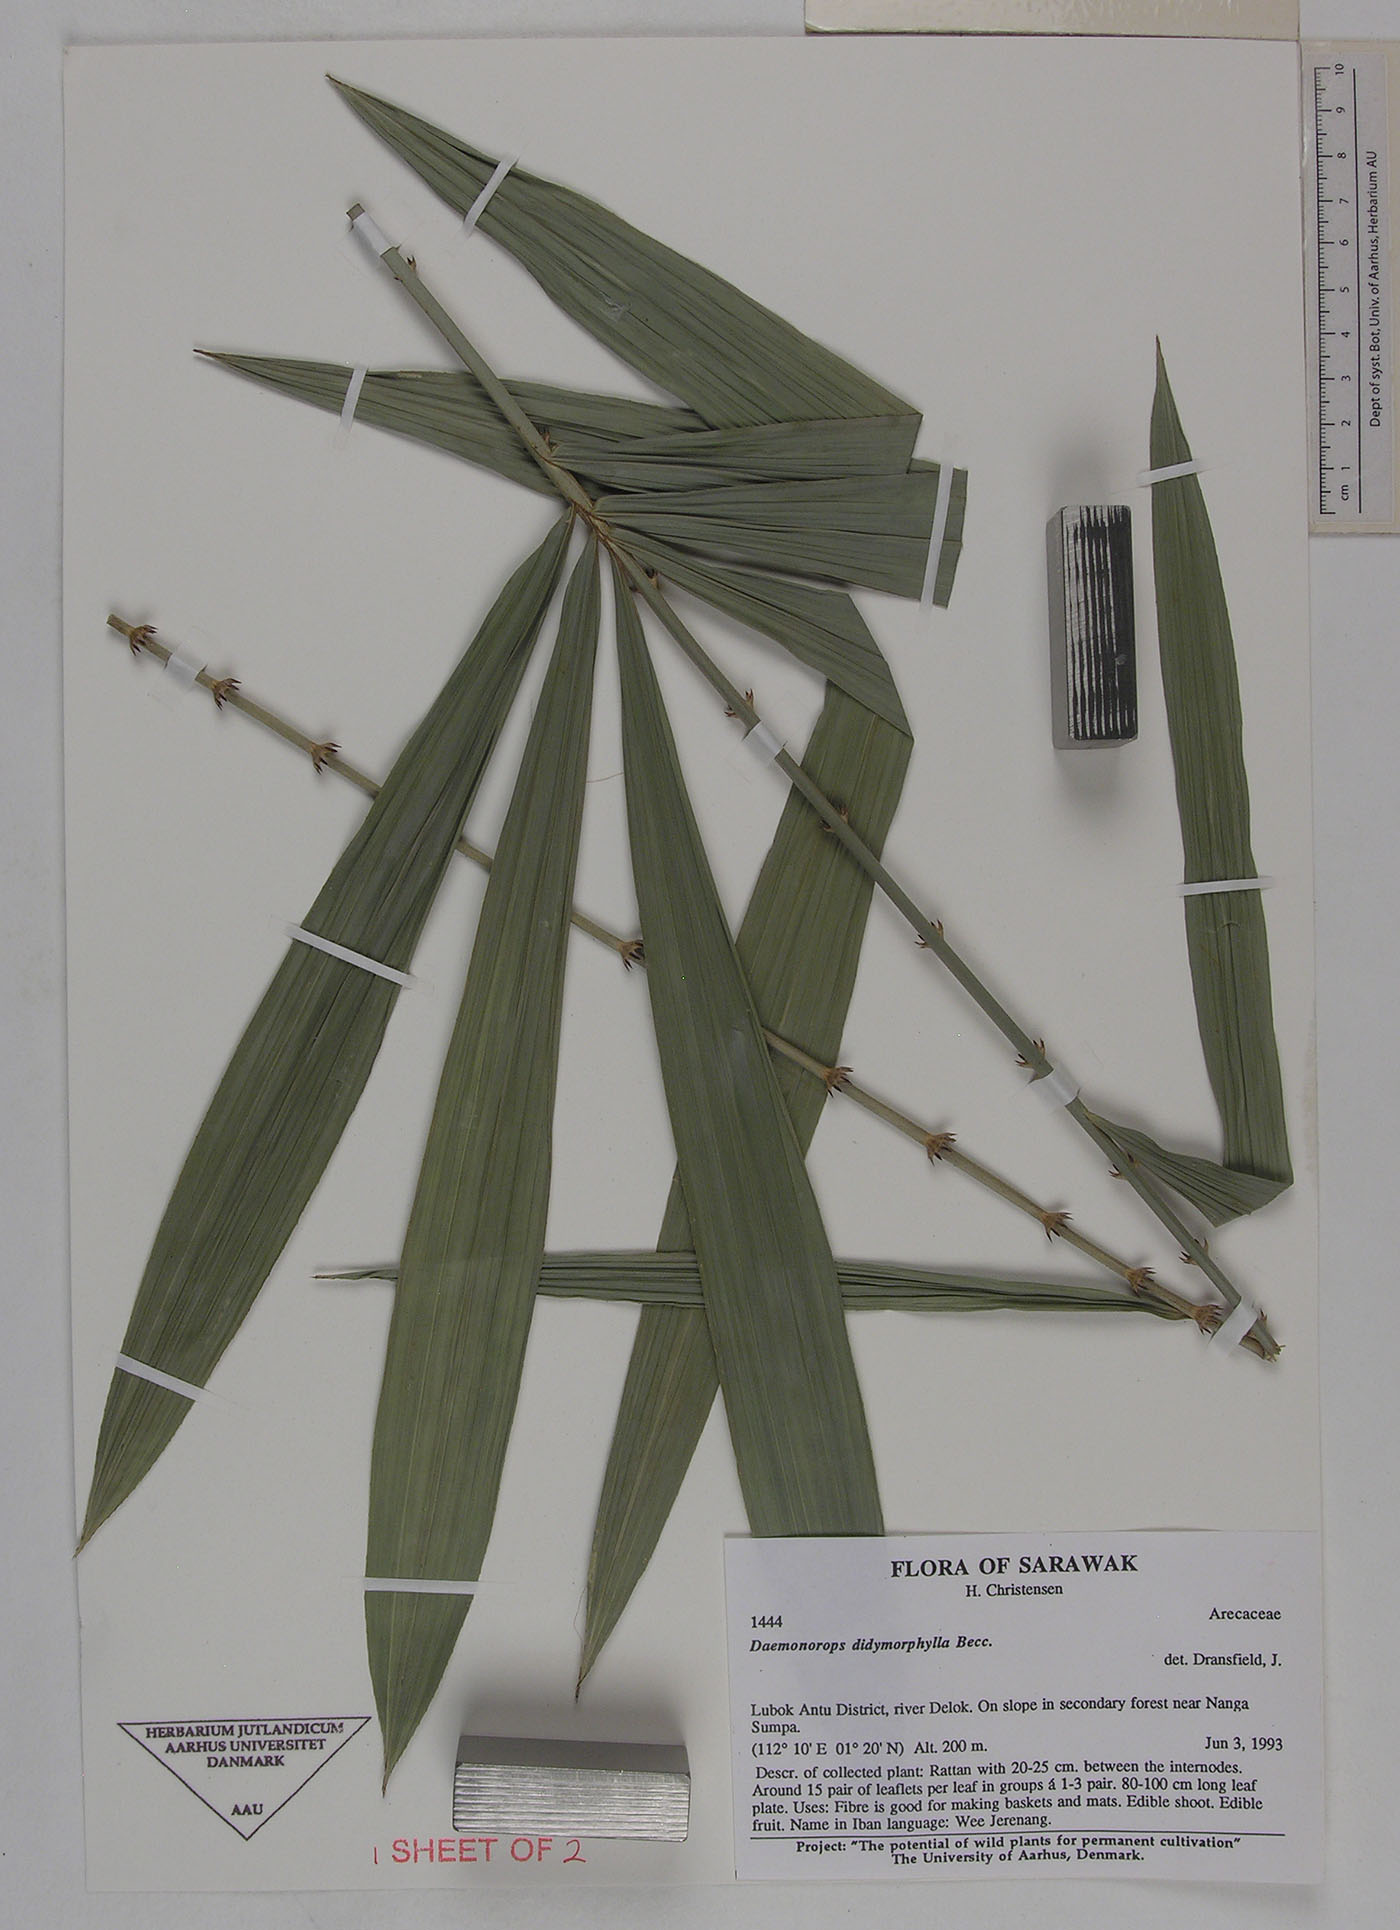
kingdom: Plantae
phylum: Tracheophyta
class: Liliopsida
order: Arecales
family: Arecaceae
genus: Calamus
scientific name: Calamus gracilipes
